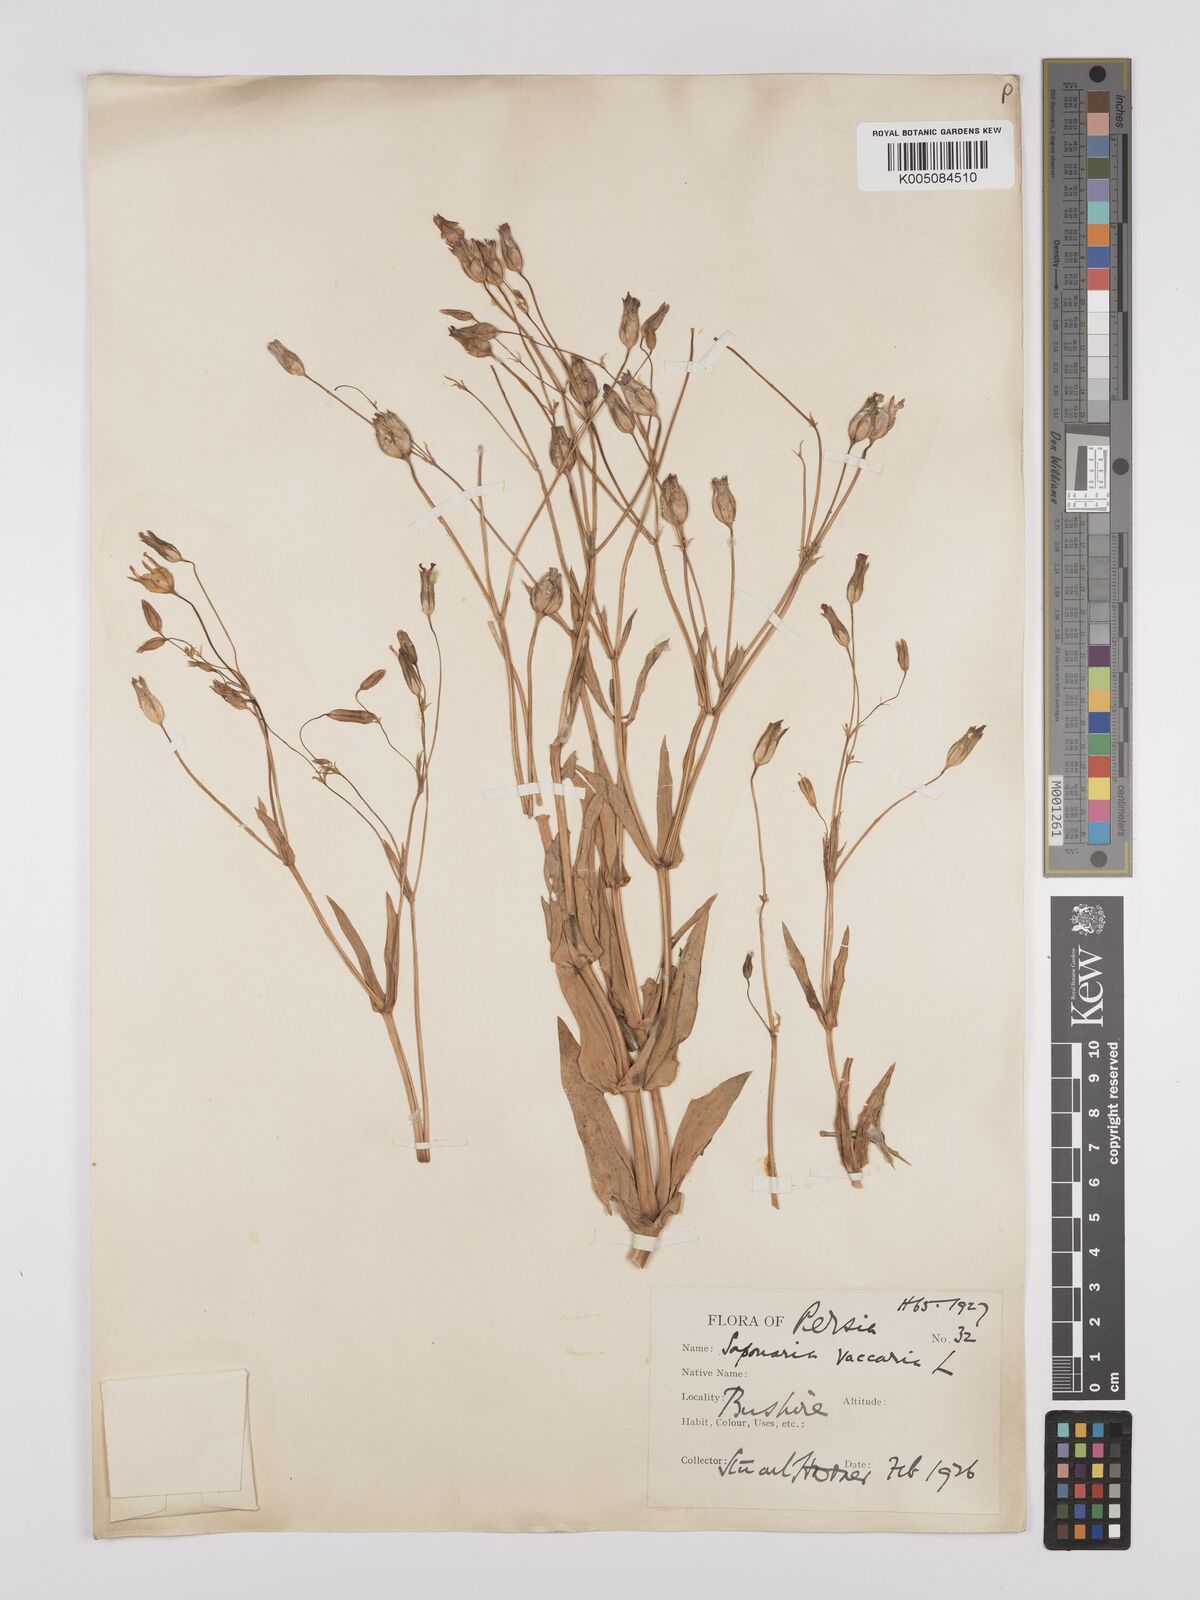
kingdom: Plantae
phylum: Tracheophyta
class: Magnoliopsida
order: Caryophyllales
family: Caryophyllaceae
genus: Gypsophila
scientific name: Gypsophila vaccaria
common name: Cow soapwort
